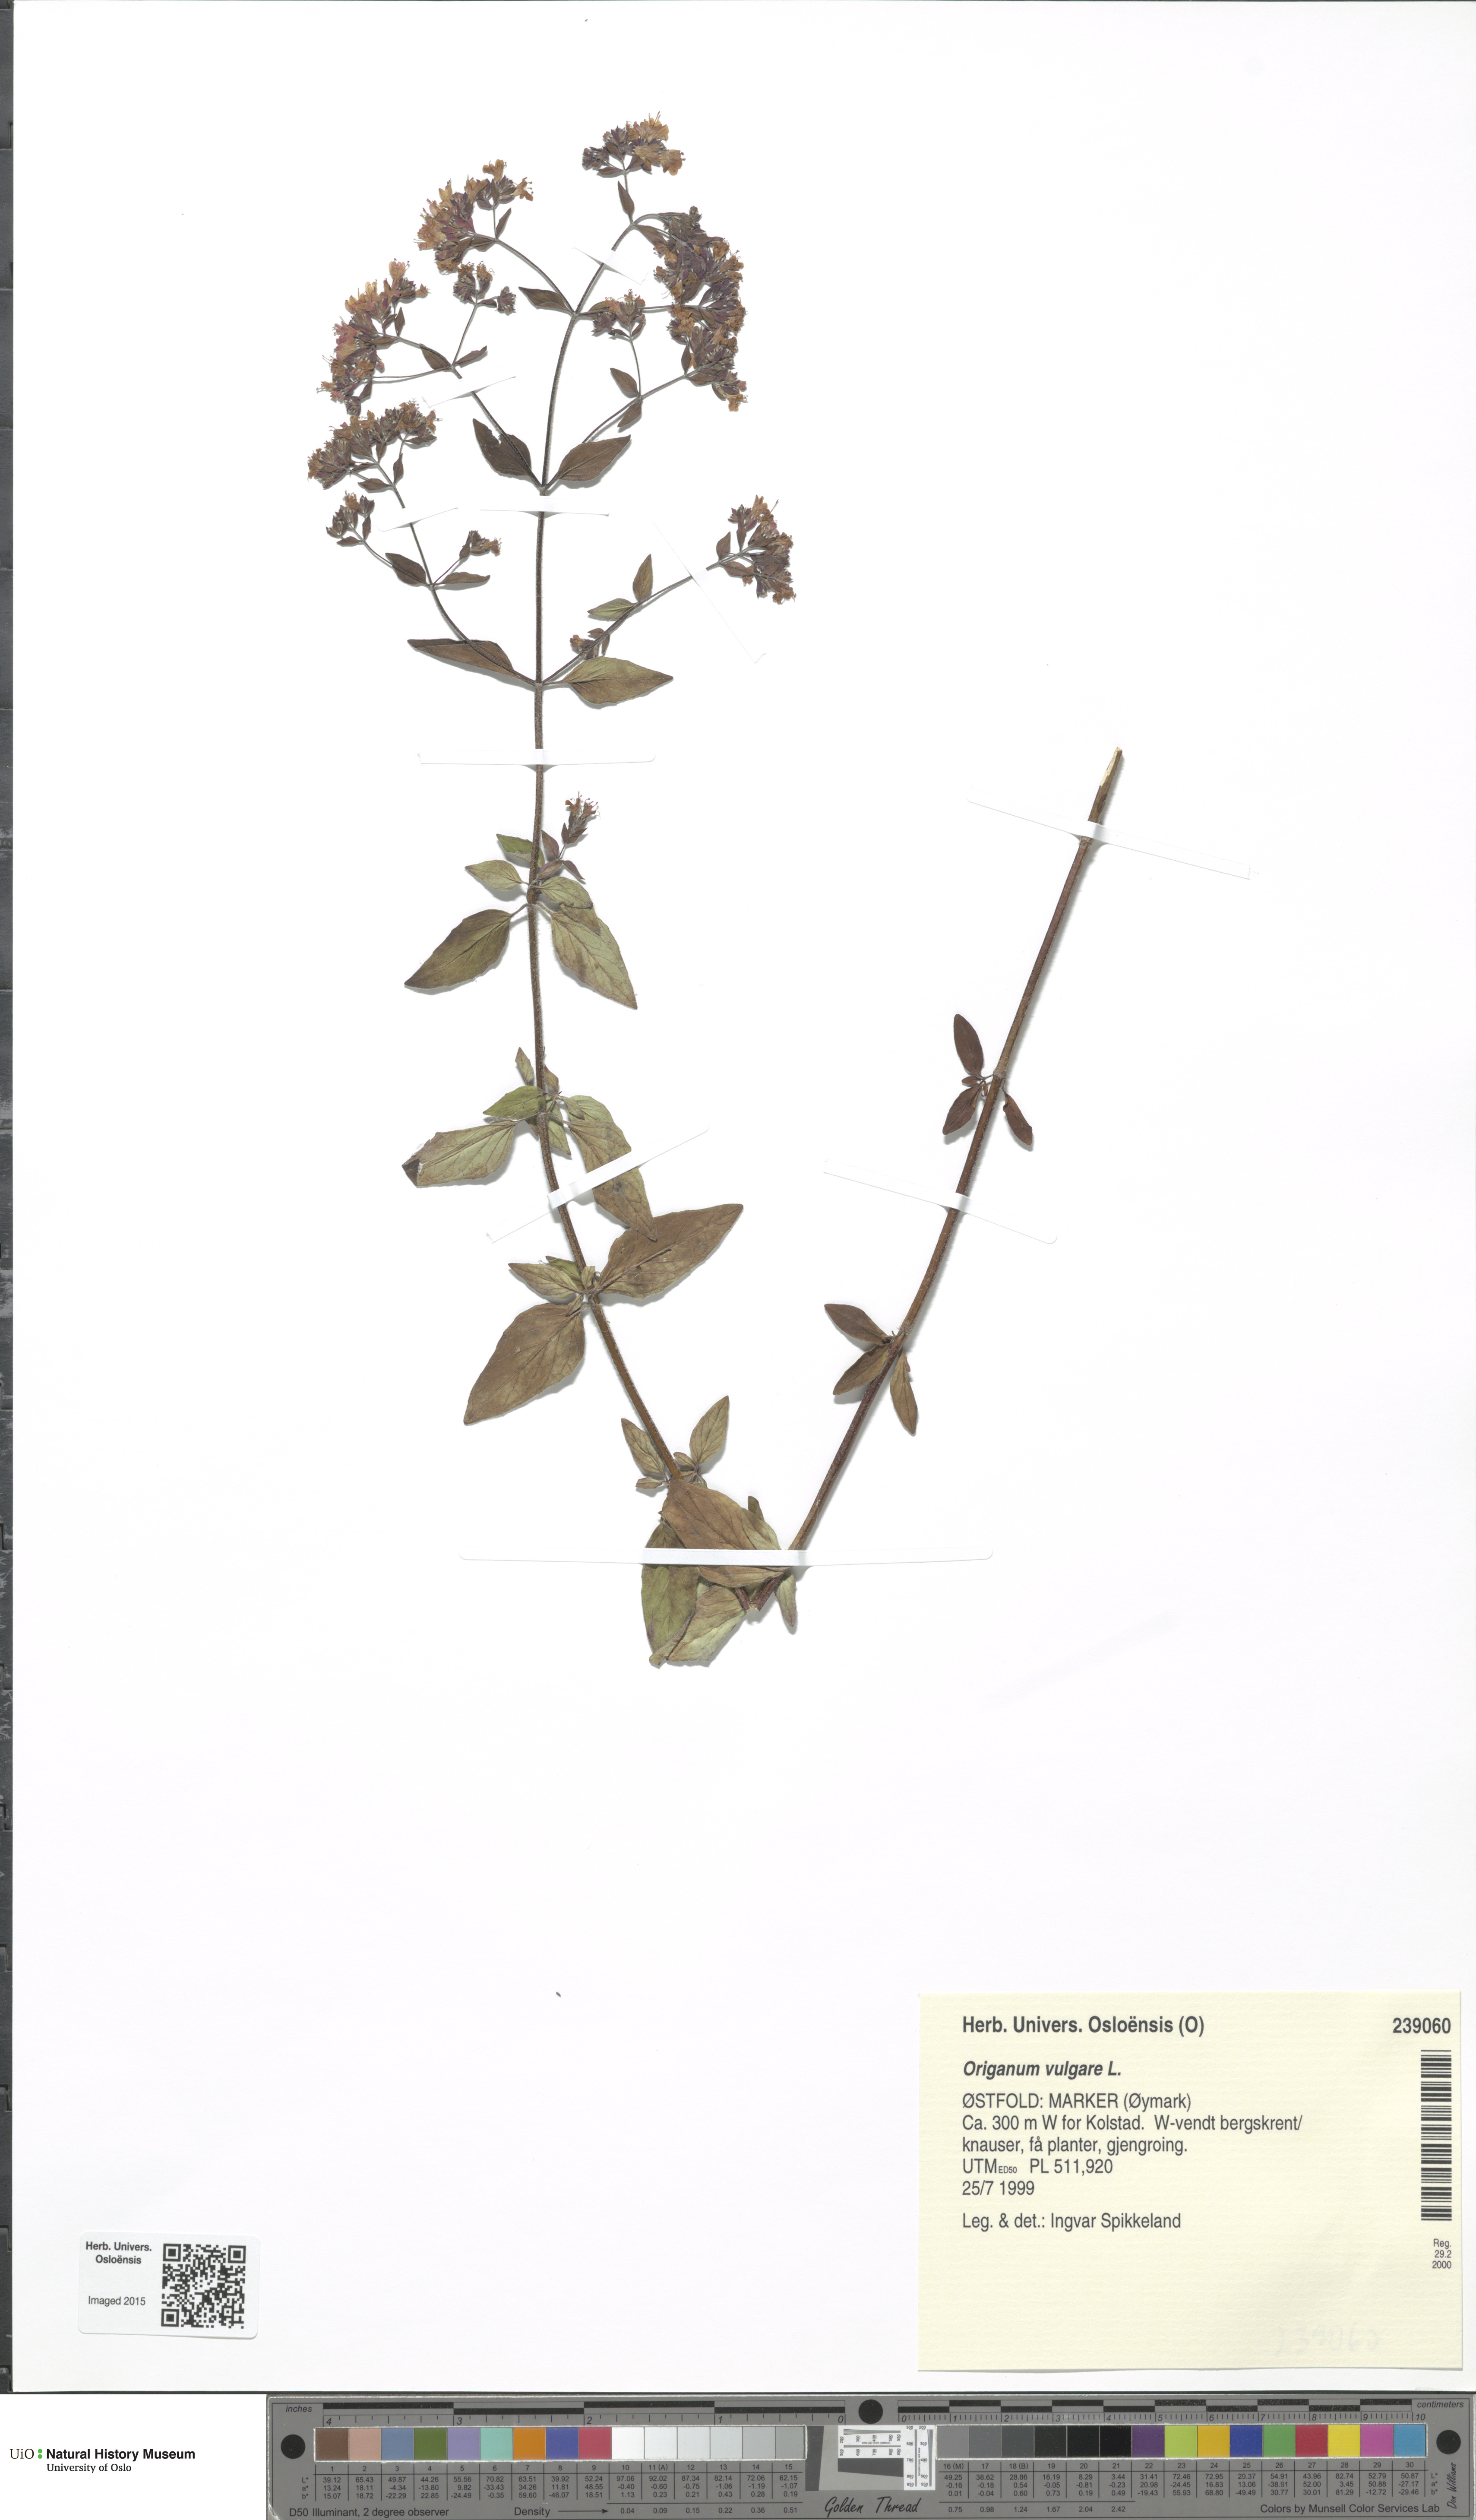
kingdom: Plantae
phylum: Tracheophyta
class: Magnoliopsida
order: Lamiales
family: Lamiaceae
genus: Origanum
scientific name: Origanum vulgare
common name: Wild marjoram
